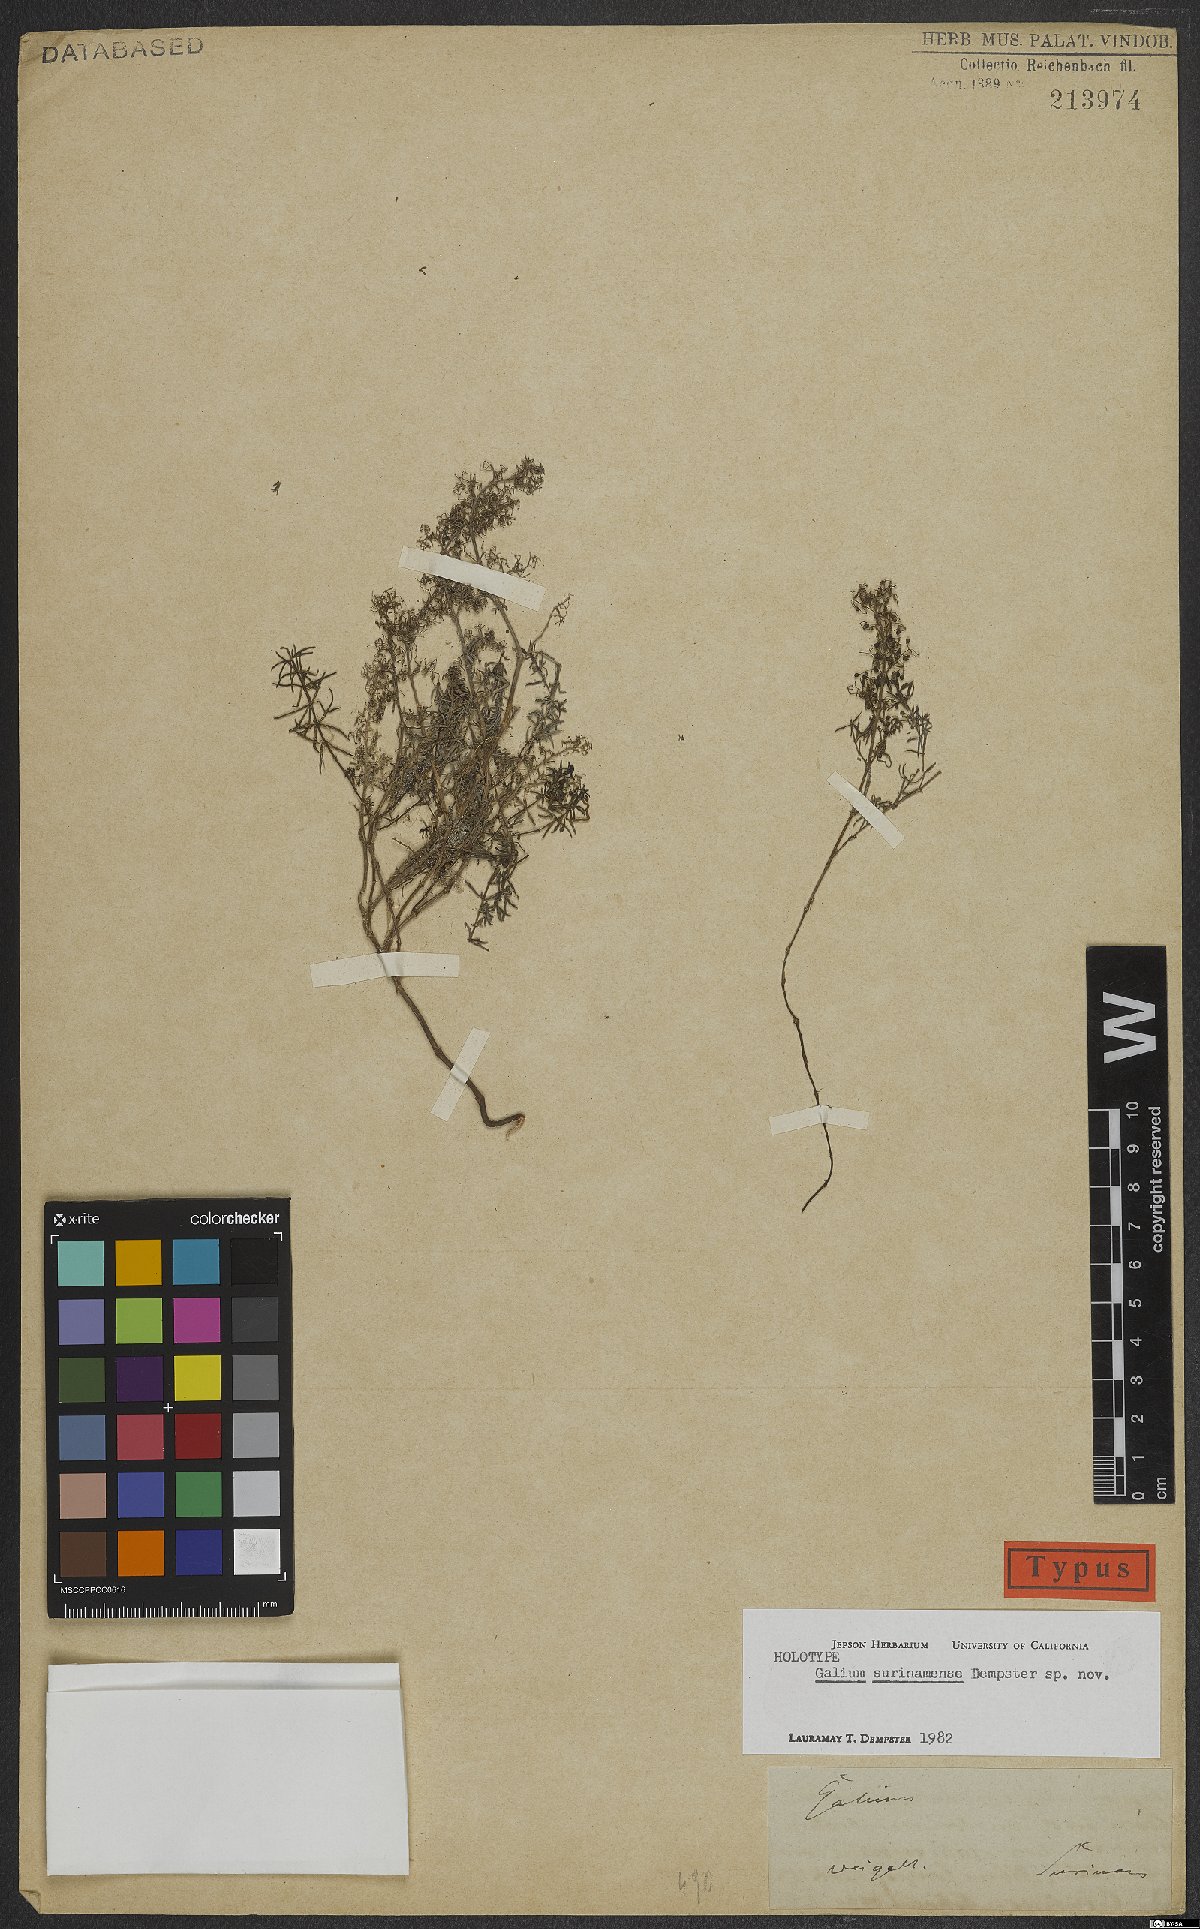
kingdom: Plantae
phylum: Tracheophyta
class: Magnoliopsida
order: Gentianales
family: Rubiaceae
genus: Galium
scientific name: Galium surinamense
